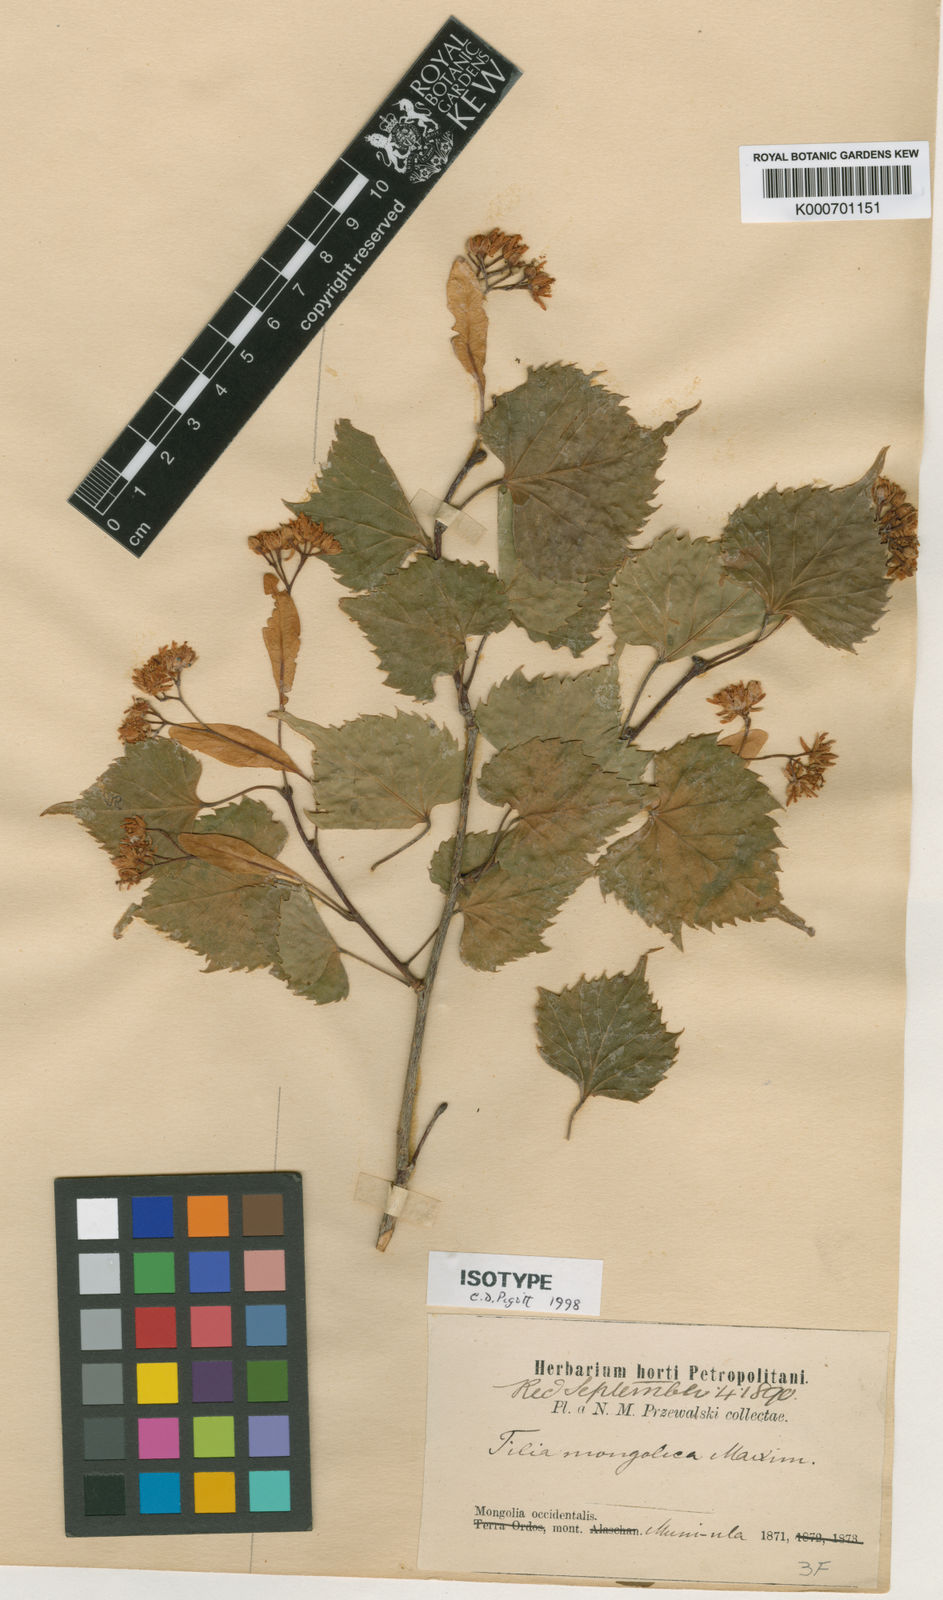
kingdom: Plantae
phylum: Tracheophyta
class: Magnoliopsida
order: Malvales
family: Malvaceae
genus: Tilia
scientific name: Tilia mongolica
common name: Mongolian lime
